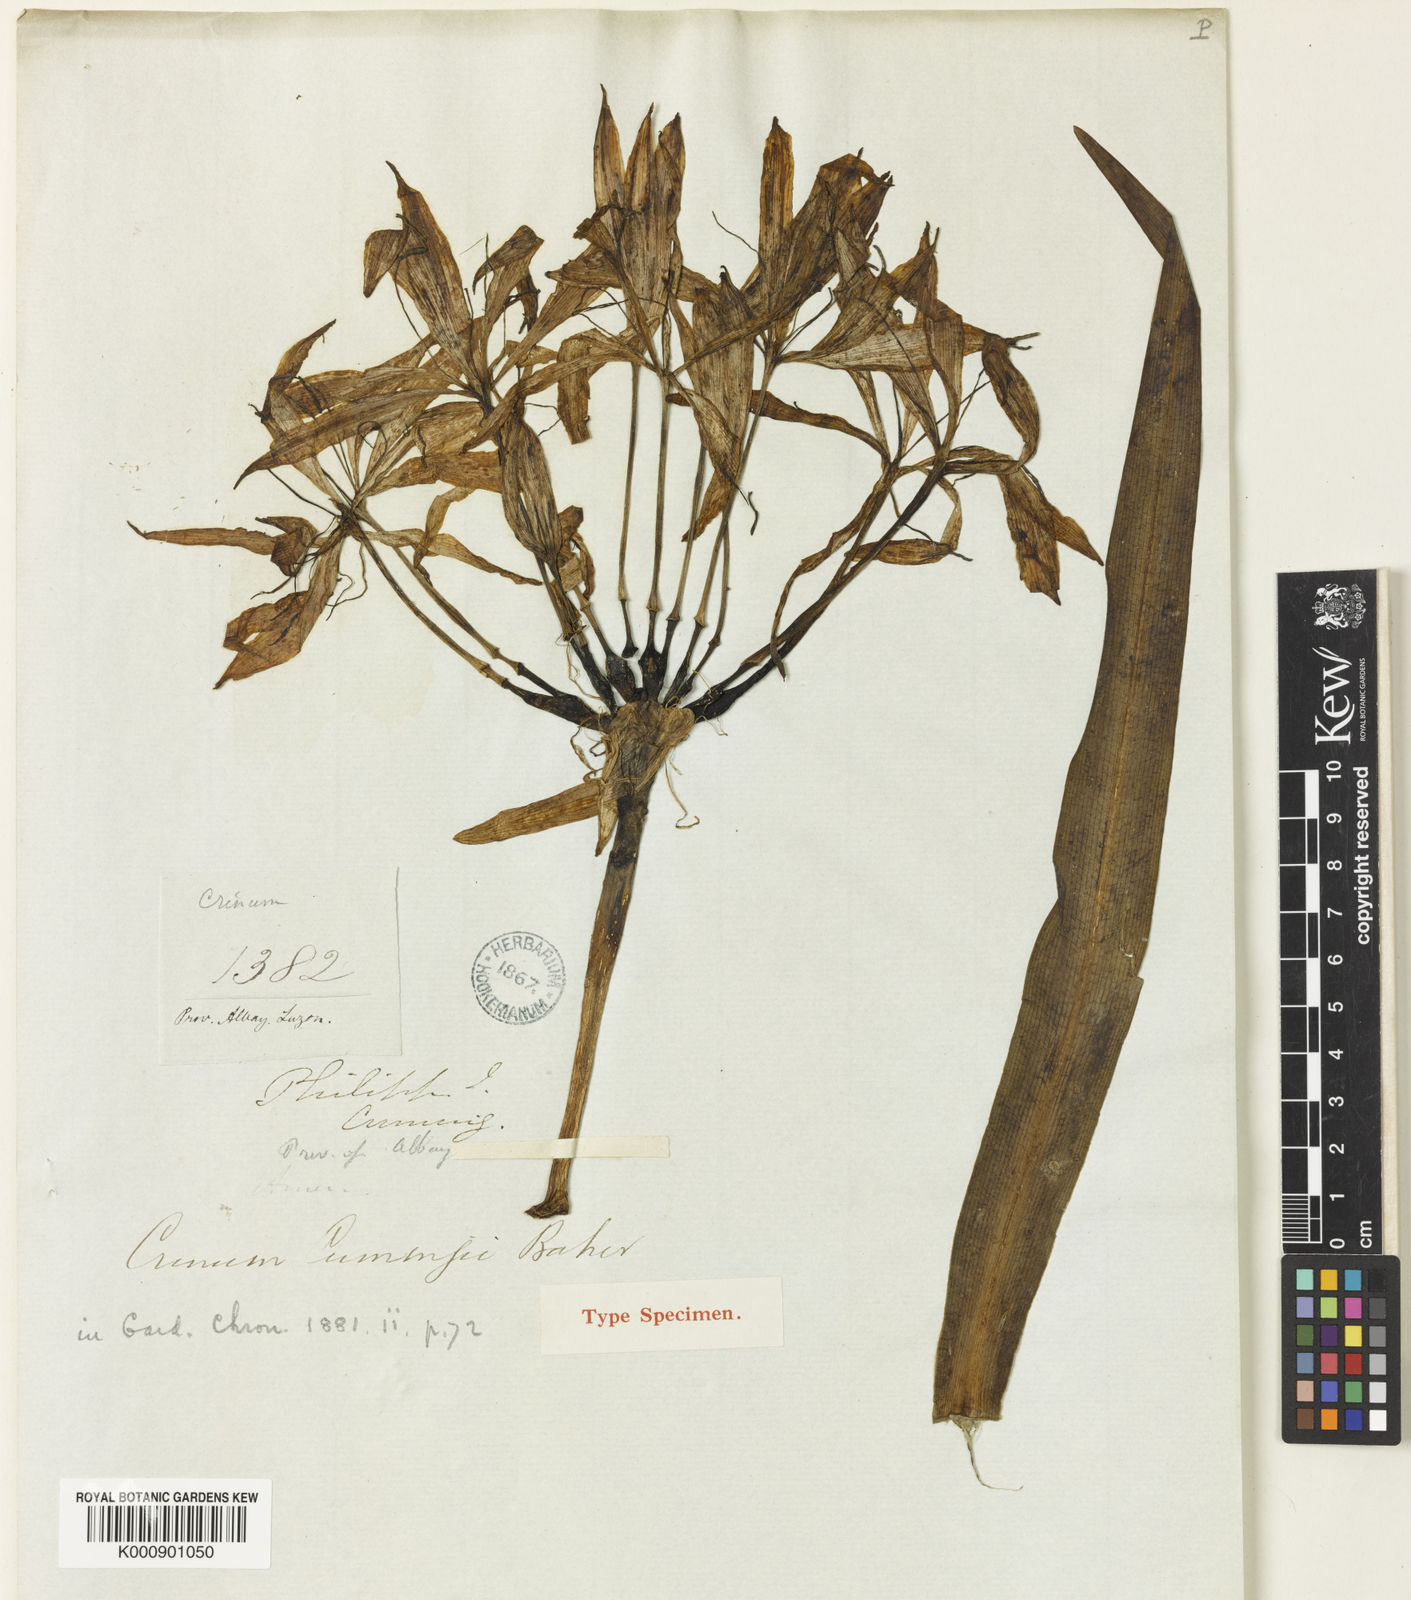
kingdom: Plantae
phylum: Tracheophyta
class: Liliopsida
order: Asparagales
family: Amaryllidaceae
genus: Crinum
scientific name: Crinum gracile
